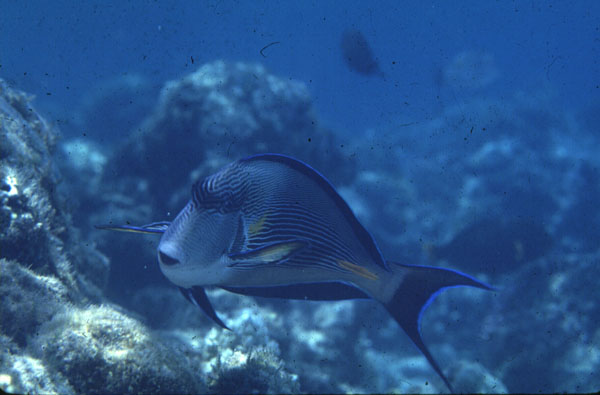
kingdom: Animalia
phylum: Chordata
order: Perciformes
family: Acanthuridae
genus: Acanthurus
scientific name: Acanthurus sohal
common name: Red sea surgeonfish
